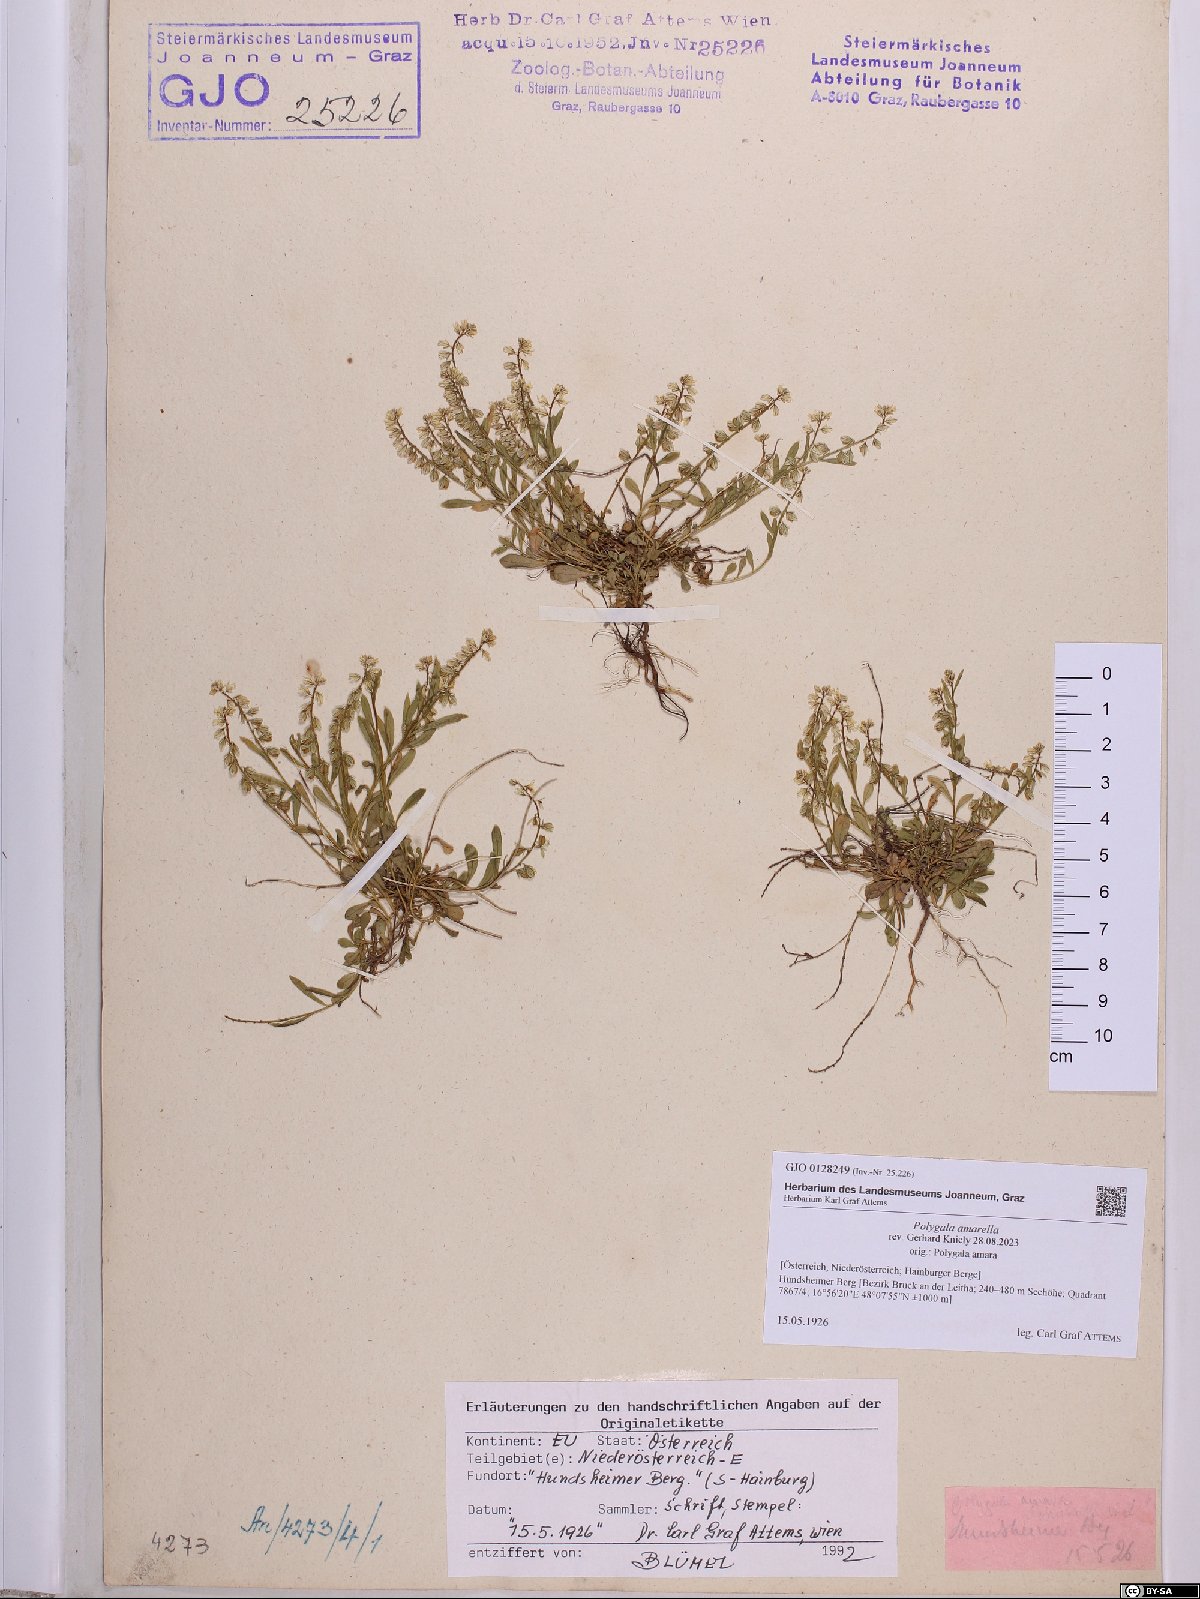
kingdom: Plantae
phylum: Tracheophyta
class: Magnoliopsida
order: Fabales
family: Polygalaceae
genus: Polygala
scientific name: Polygala amarella
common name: Dwarf milkwort
